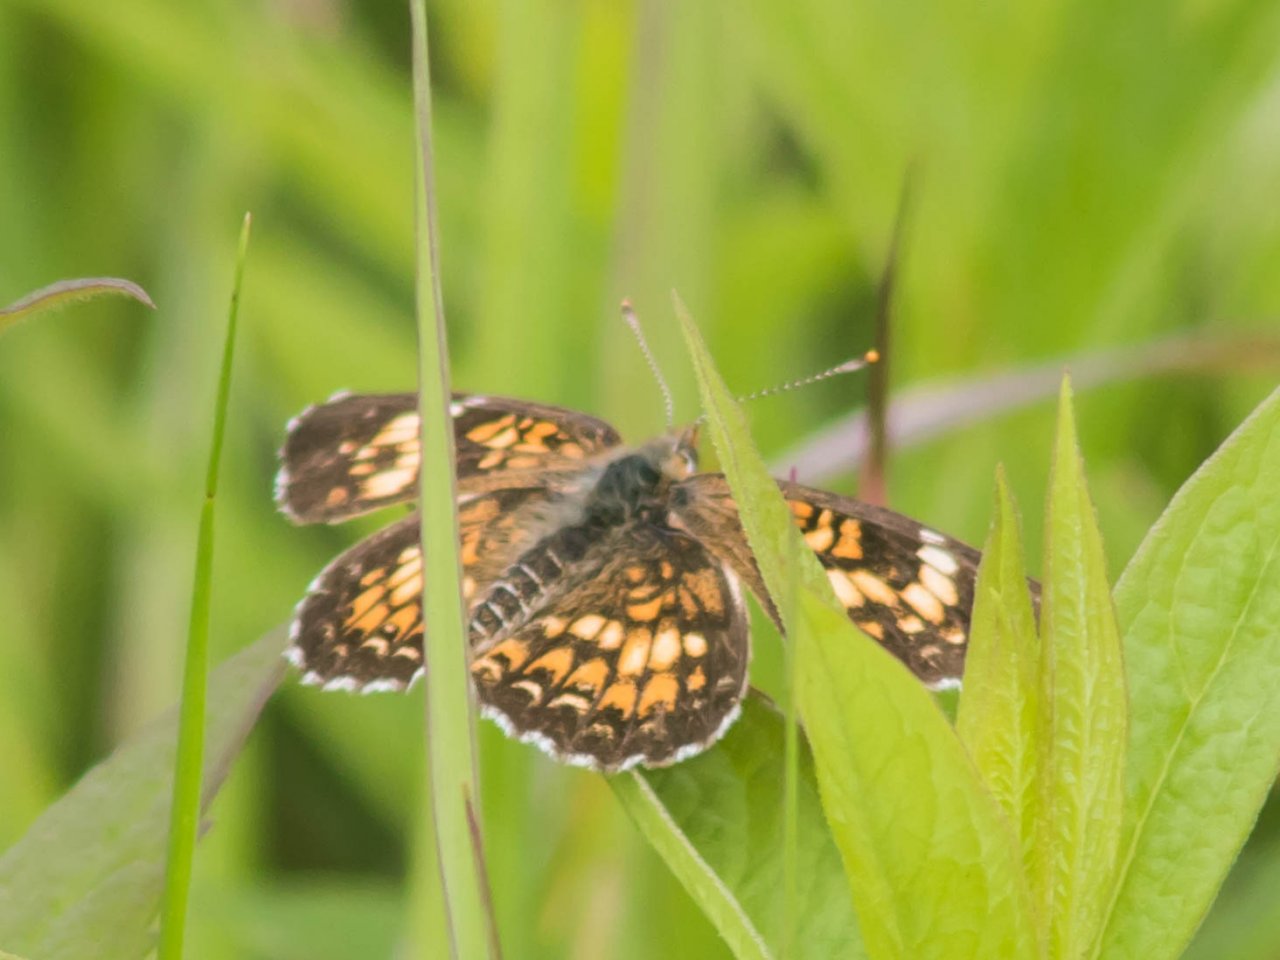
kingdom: Animalia
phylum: Arthropoda
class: Insecta
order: Lepidoptera
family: Nymphalidae
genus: Chlosyne
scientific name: Chlosyne harrisii
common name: Harris's Checkerspot
